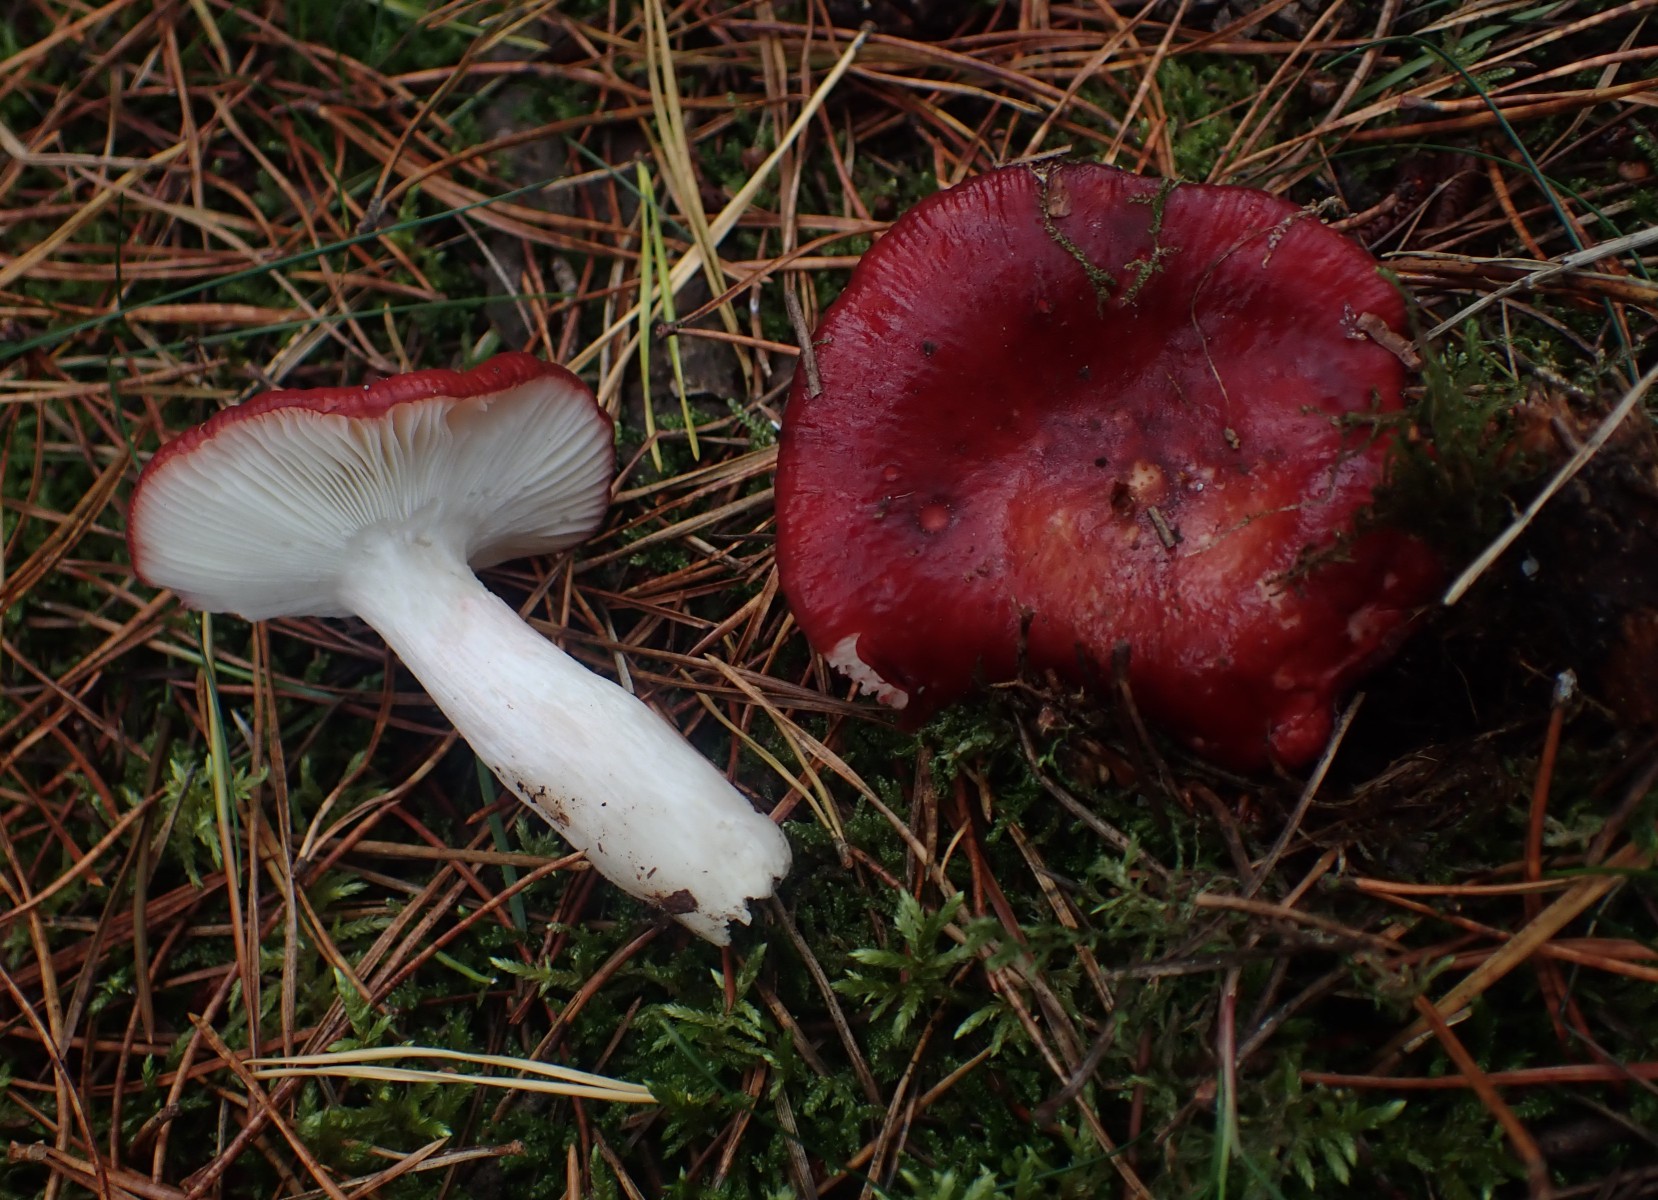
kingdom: Fungi
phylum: Basidiomycota
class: Agaricomycetes
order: Russulales
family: Russulaceae
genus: Russula
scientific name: Russula paludosa
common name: prægtig skørhat
